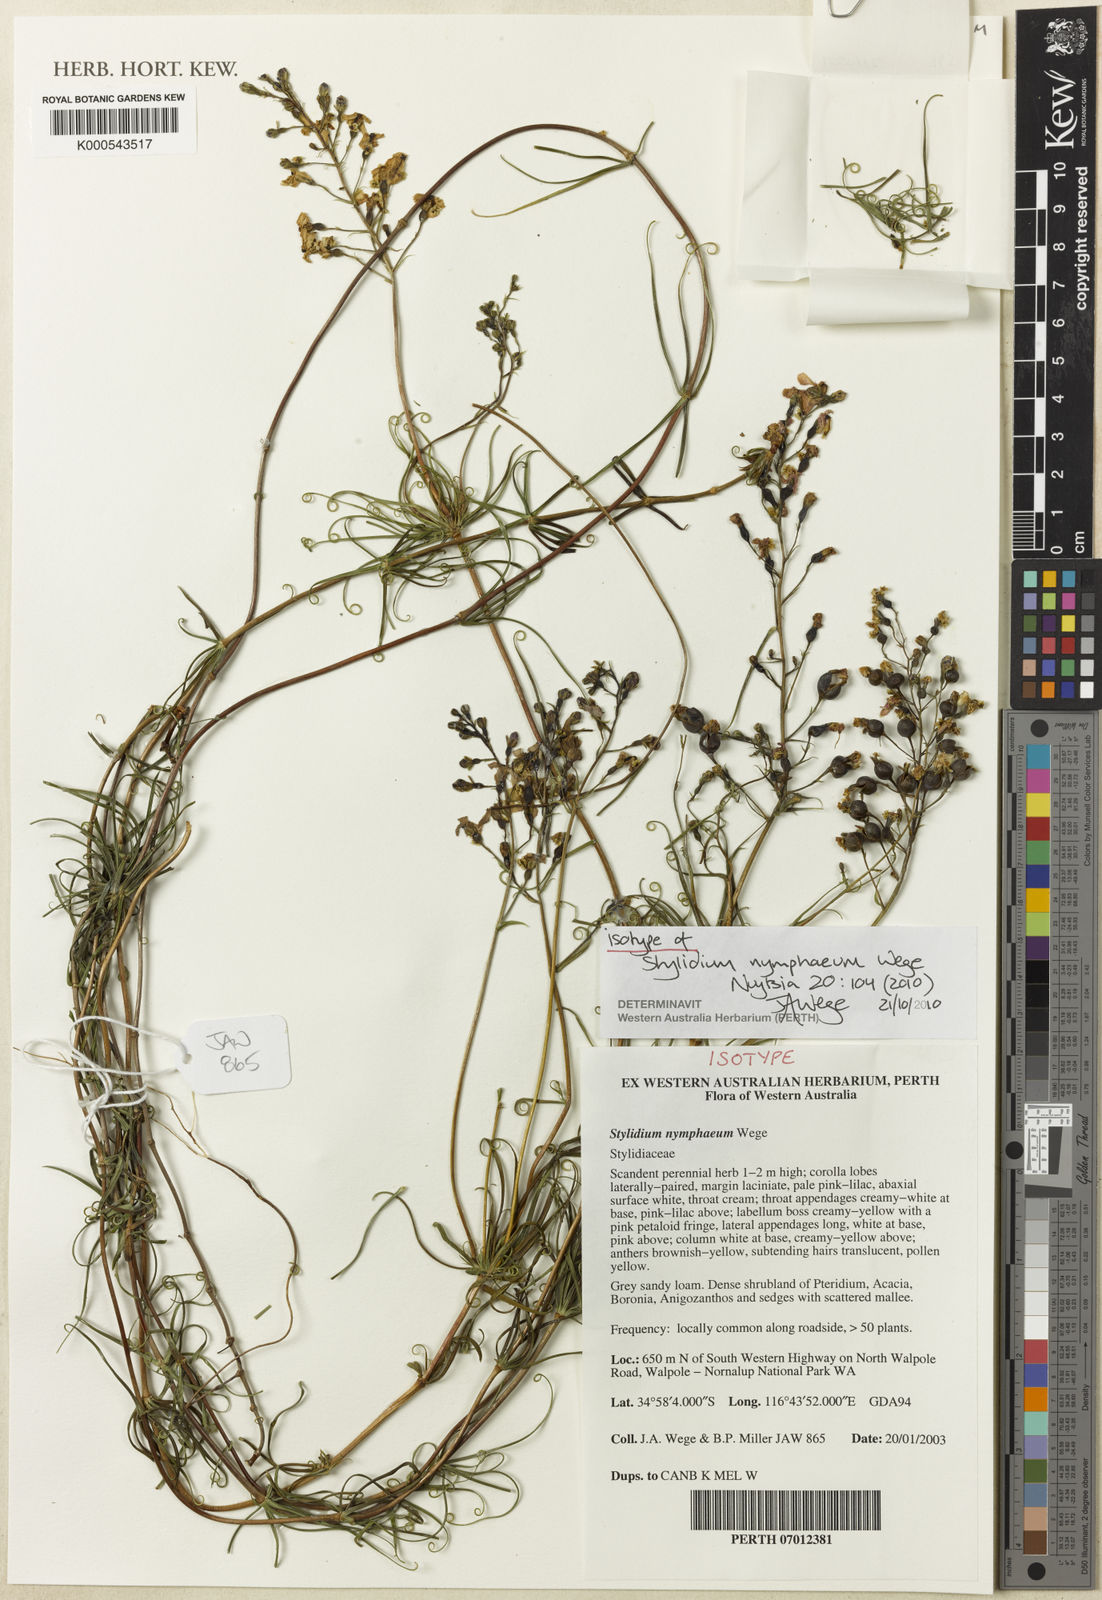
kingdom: Plantae
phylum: Tracheophyta
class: Magnoliopsida
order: Asterales
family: Stylidiaceae
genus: Stylidium
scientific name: Stylidium nymphaeum
